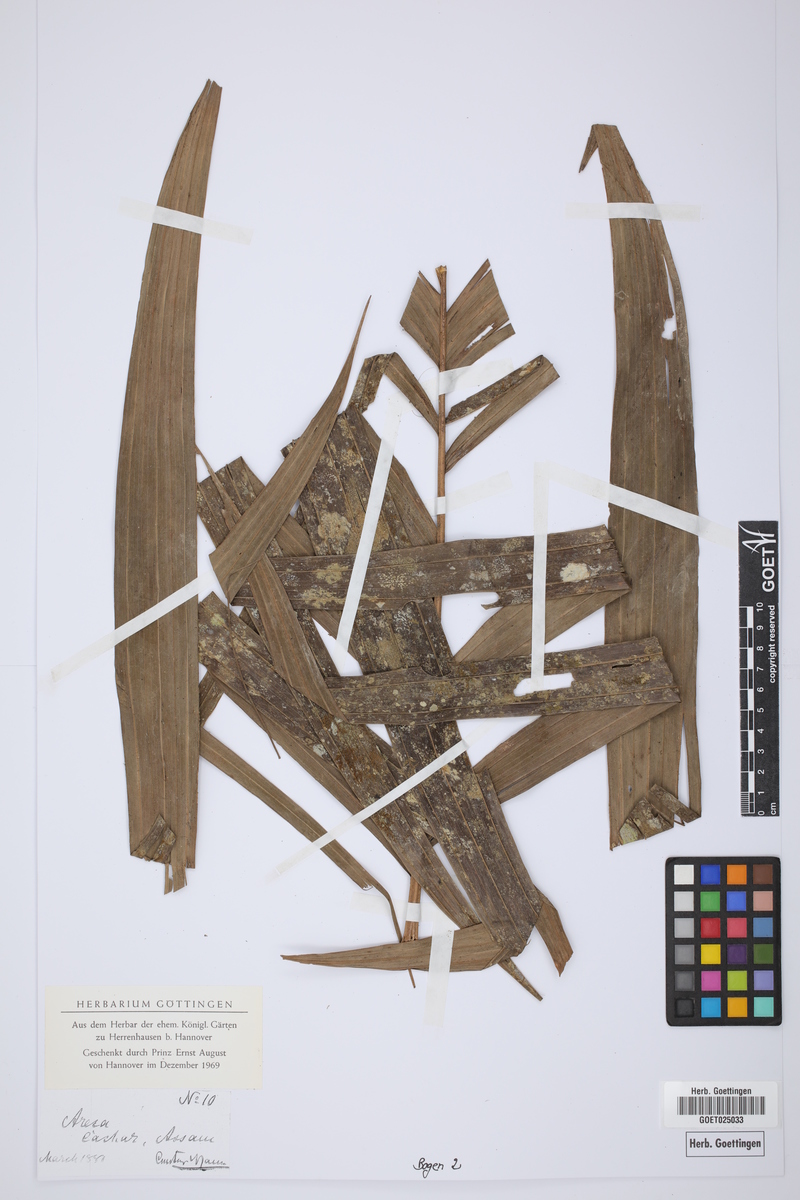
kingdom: Plantae
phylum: Tracheophyta
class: Liliopsida
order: Arecales
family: Arecaceae
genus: Areca
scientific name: Areca
